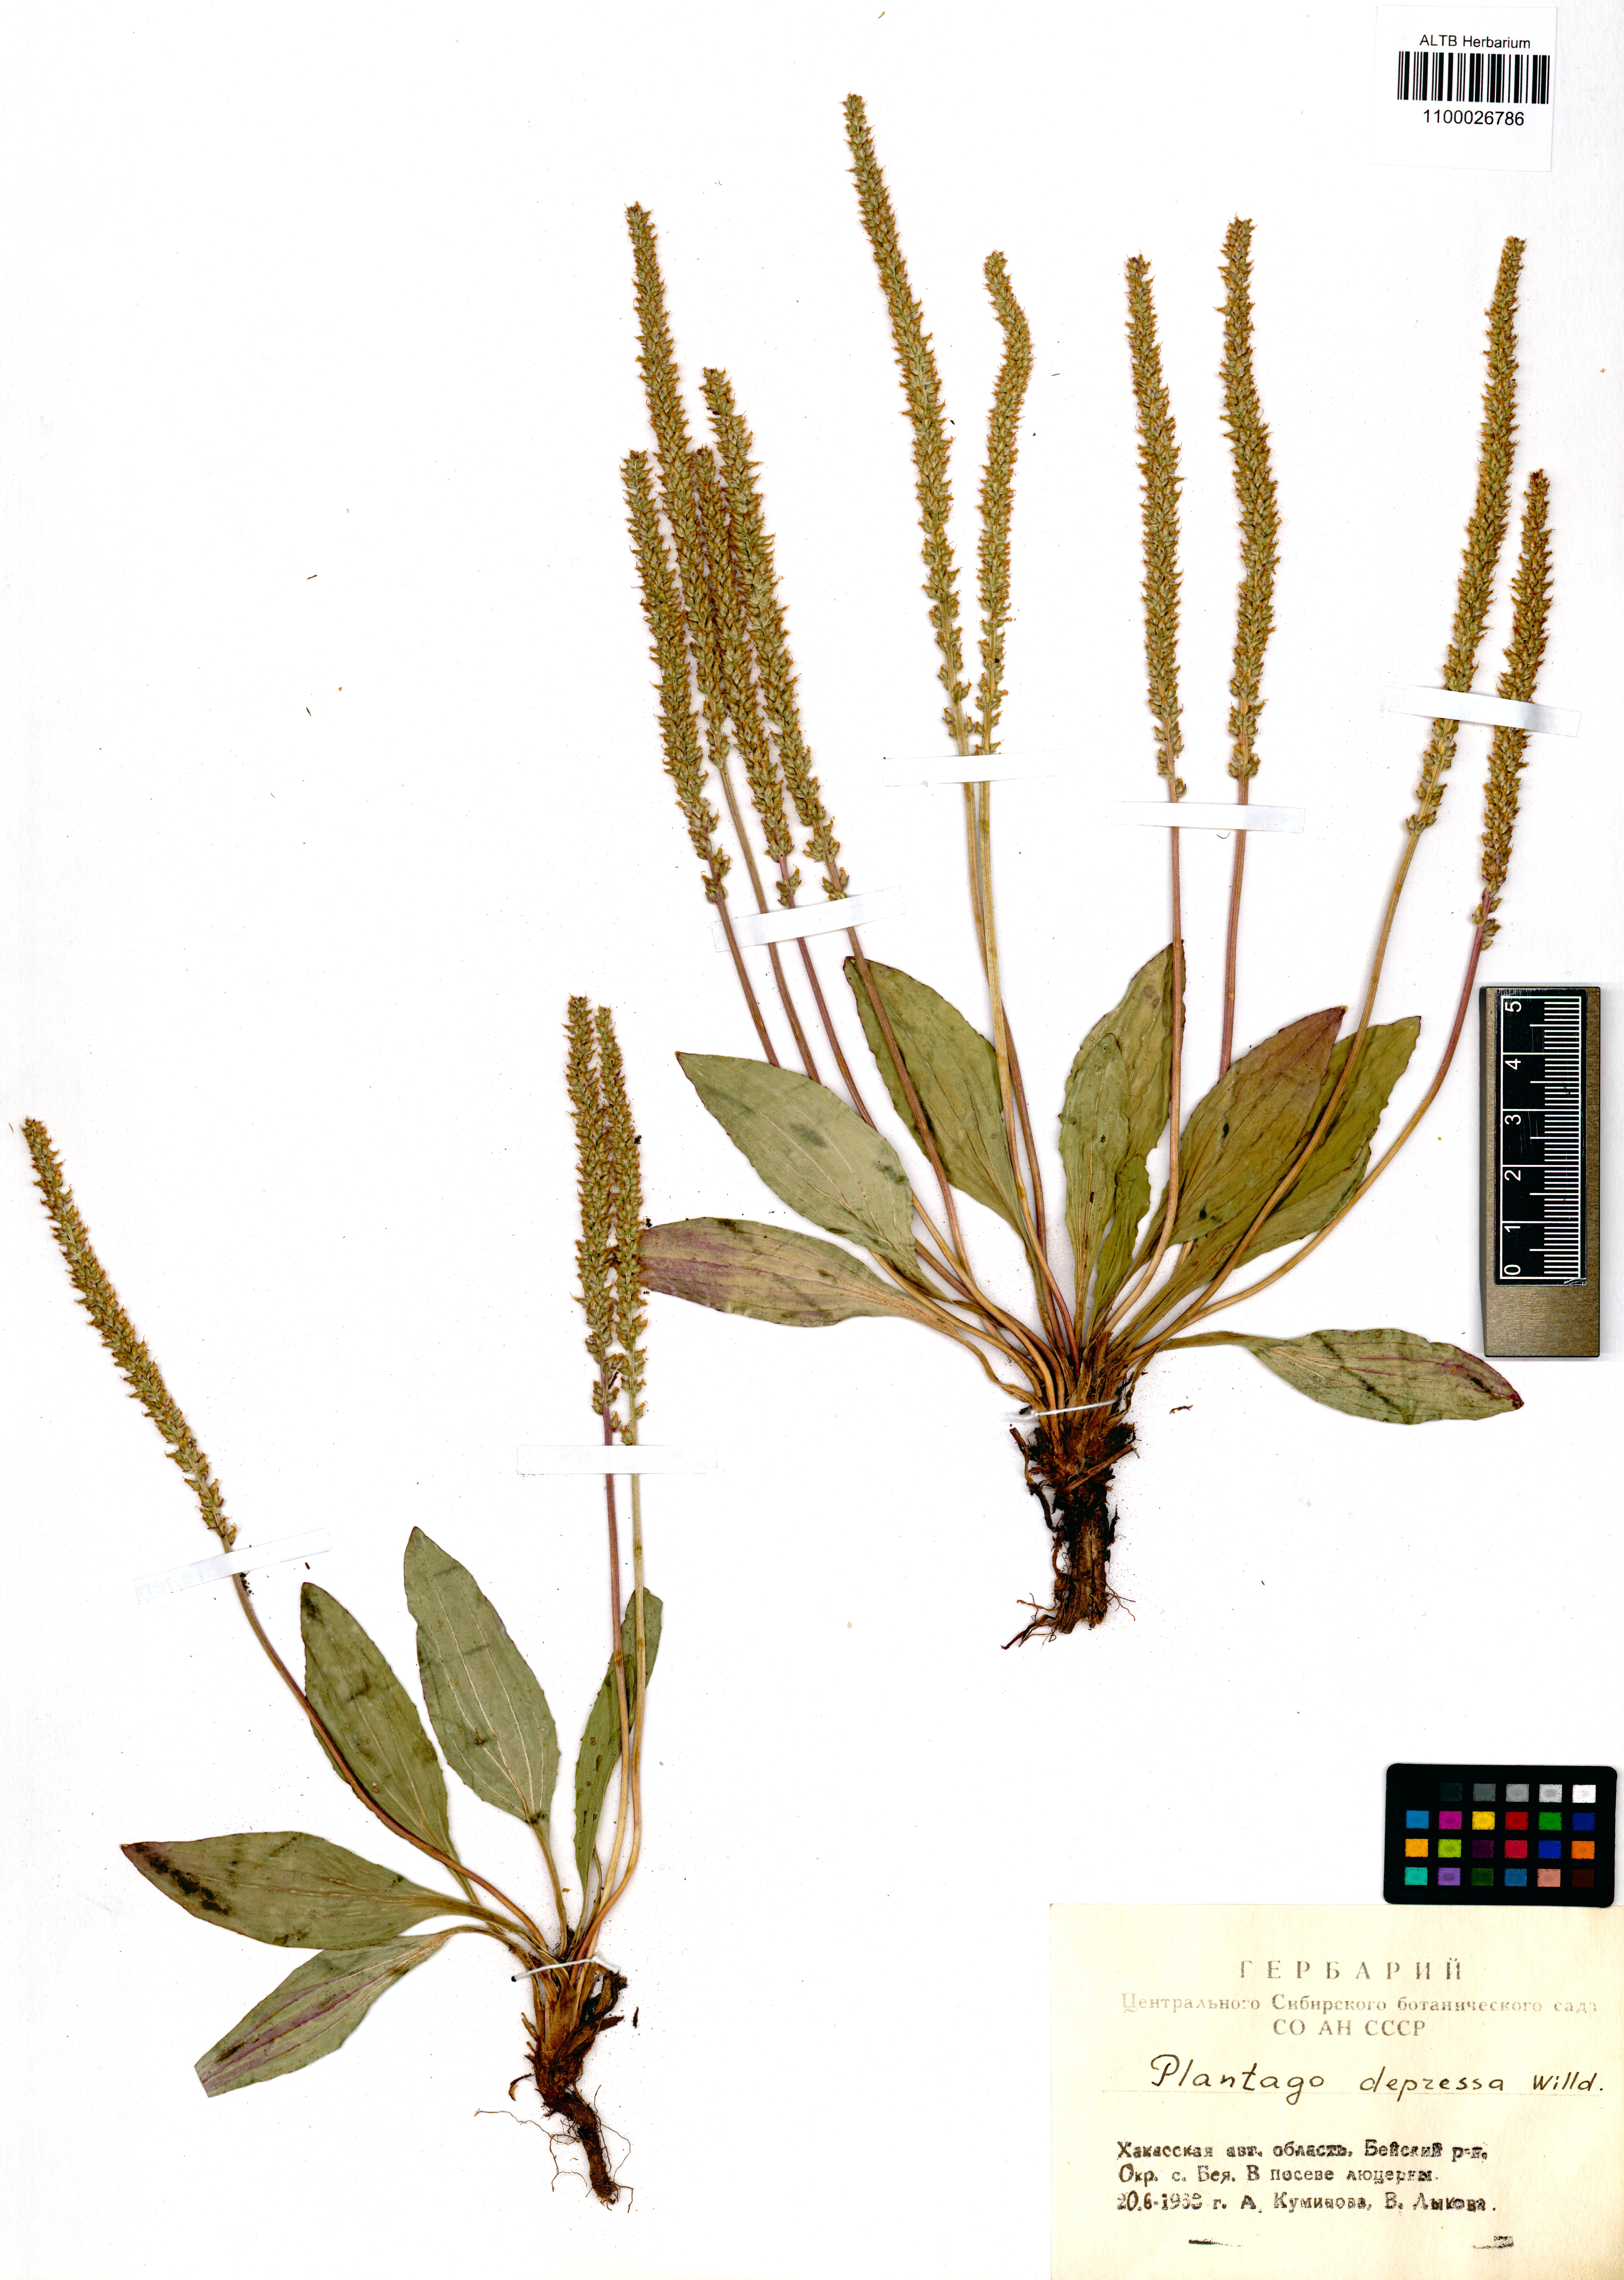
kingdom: Plantae
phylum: Tracheophyta
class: Magnoliopsida
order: Lamiales
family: Plantaginaceae
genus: Plantago
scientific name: Plantago depressa
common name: Depressed plantain
